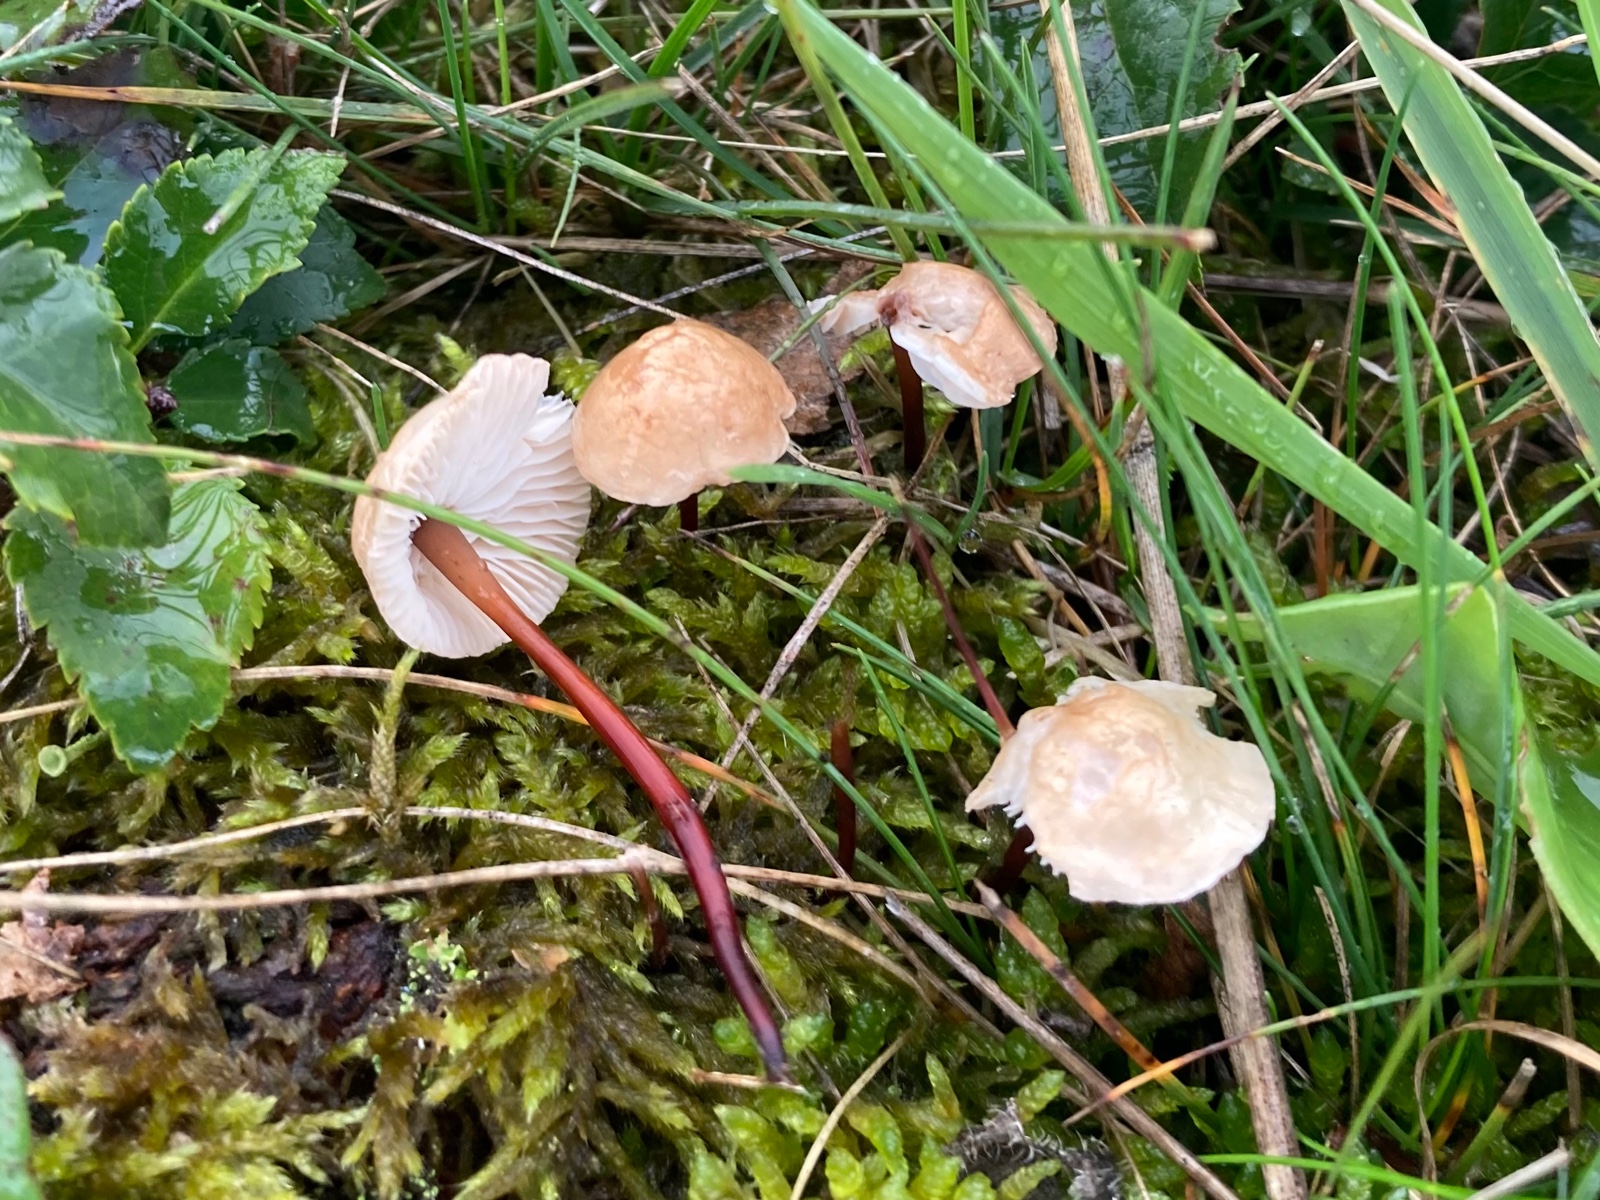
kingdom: Fungi
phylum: Basidiomycota
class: Agaricomycetes
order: Agaricales
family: Omphalotaceae
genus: Mycetinis
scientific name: Mycetinis scorodonius
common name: lille løghat
